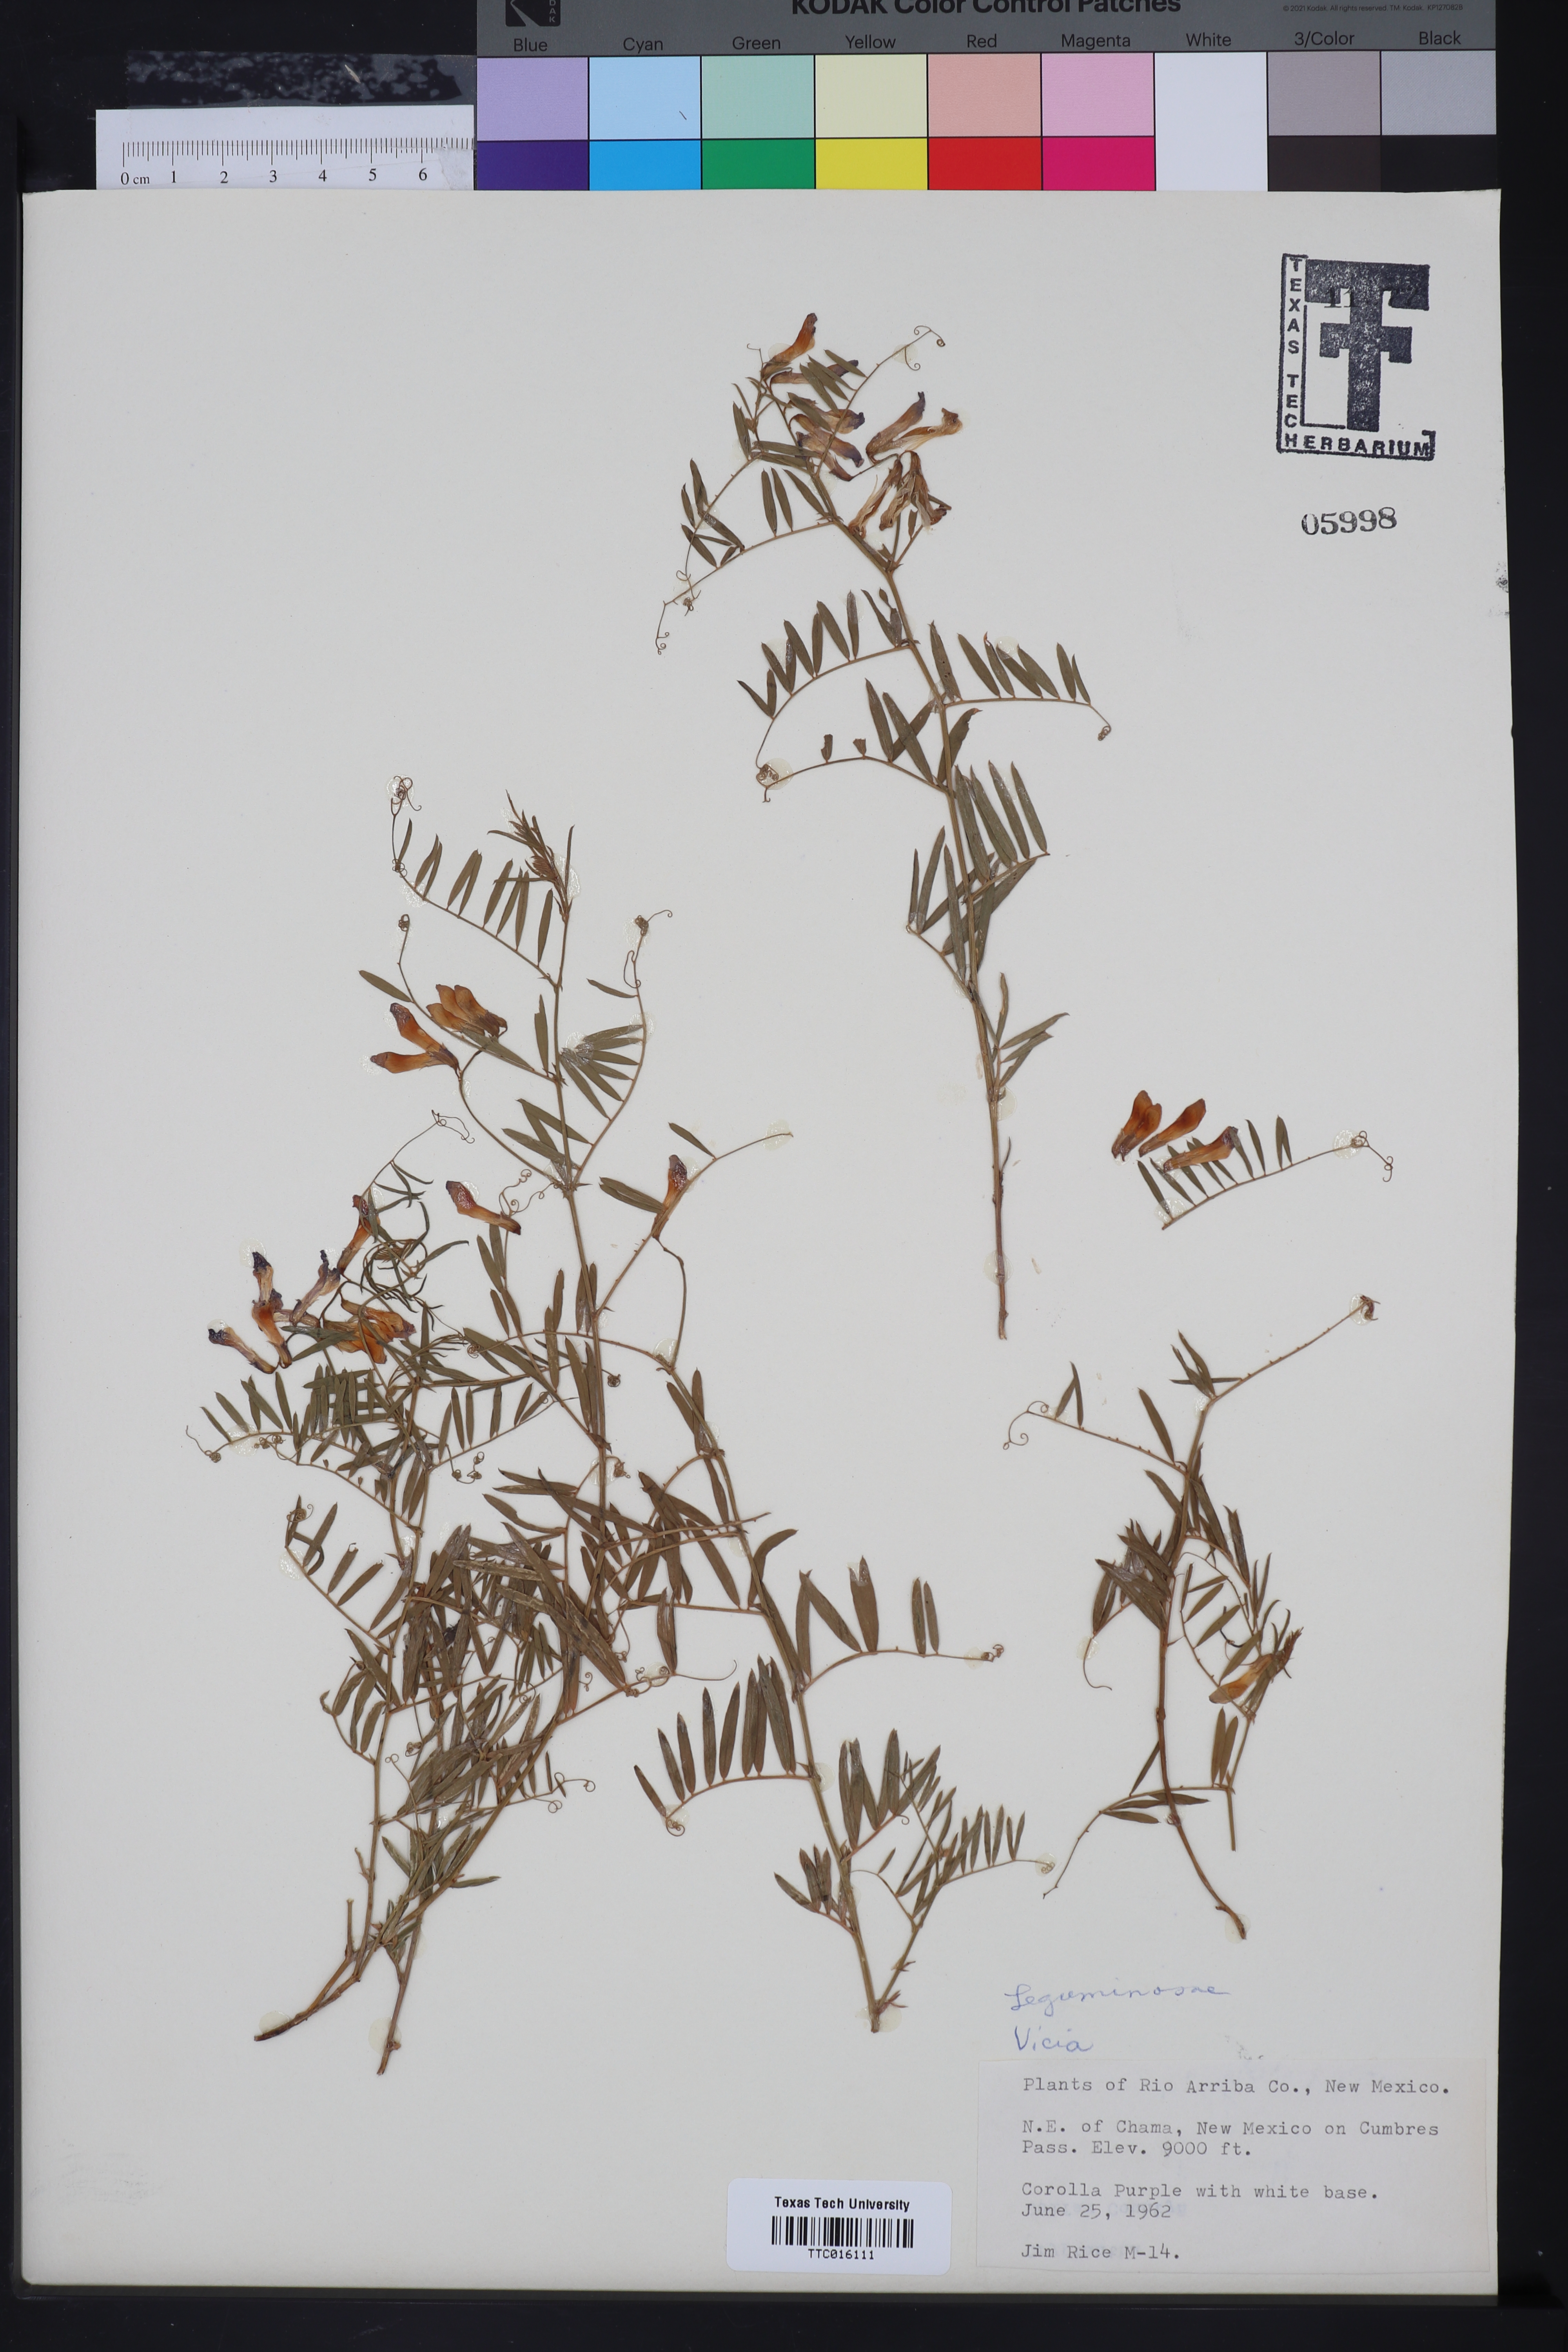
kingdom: Plantae
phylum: Tracheophyta
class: Magnoliopsida
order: Fabales
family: Fabaceae
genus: Vicia
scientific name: Vicia
